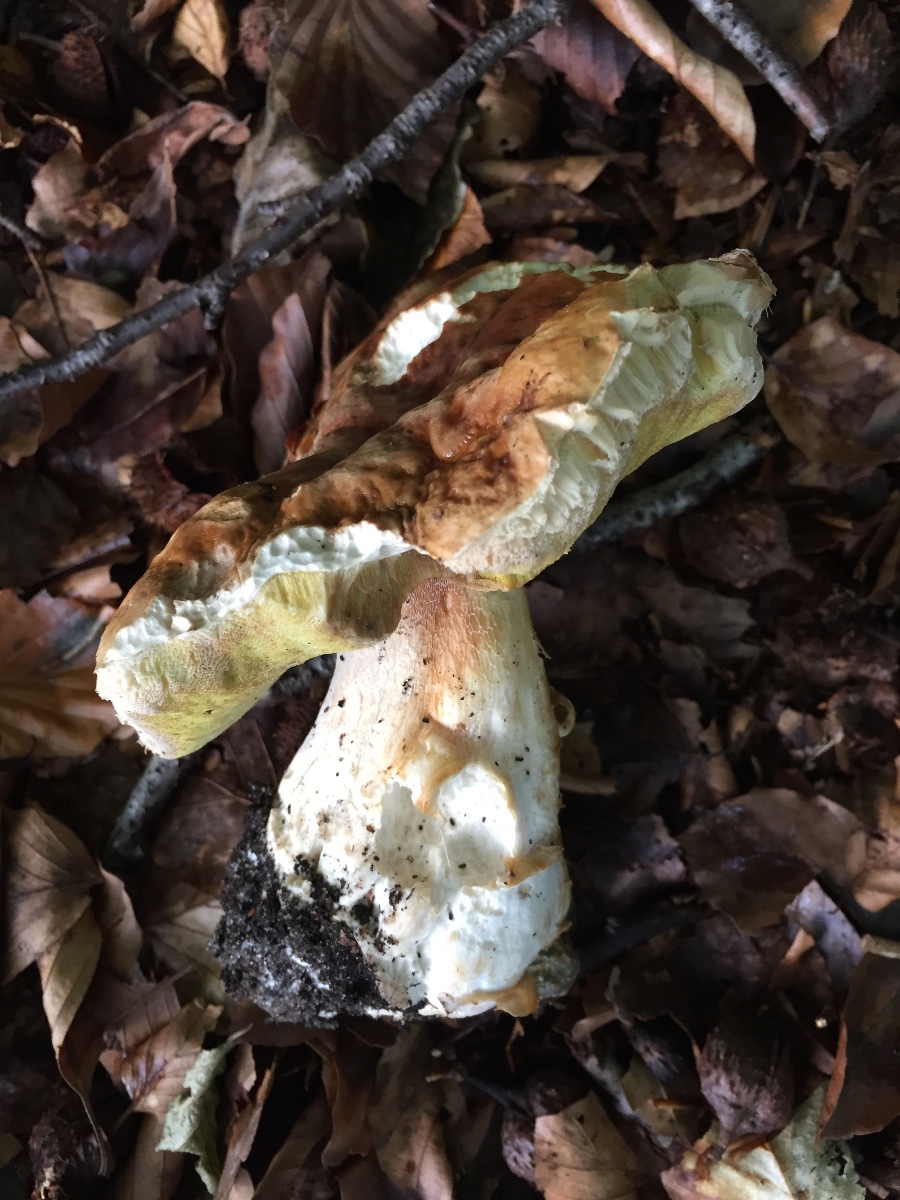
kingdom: Fungi
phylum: Basidiomycota
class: Agaricomycetes
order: Boletales
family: Boletaceae
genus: Boletus
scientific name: Boletus edulis
